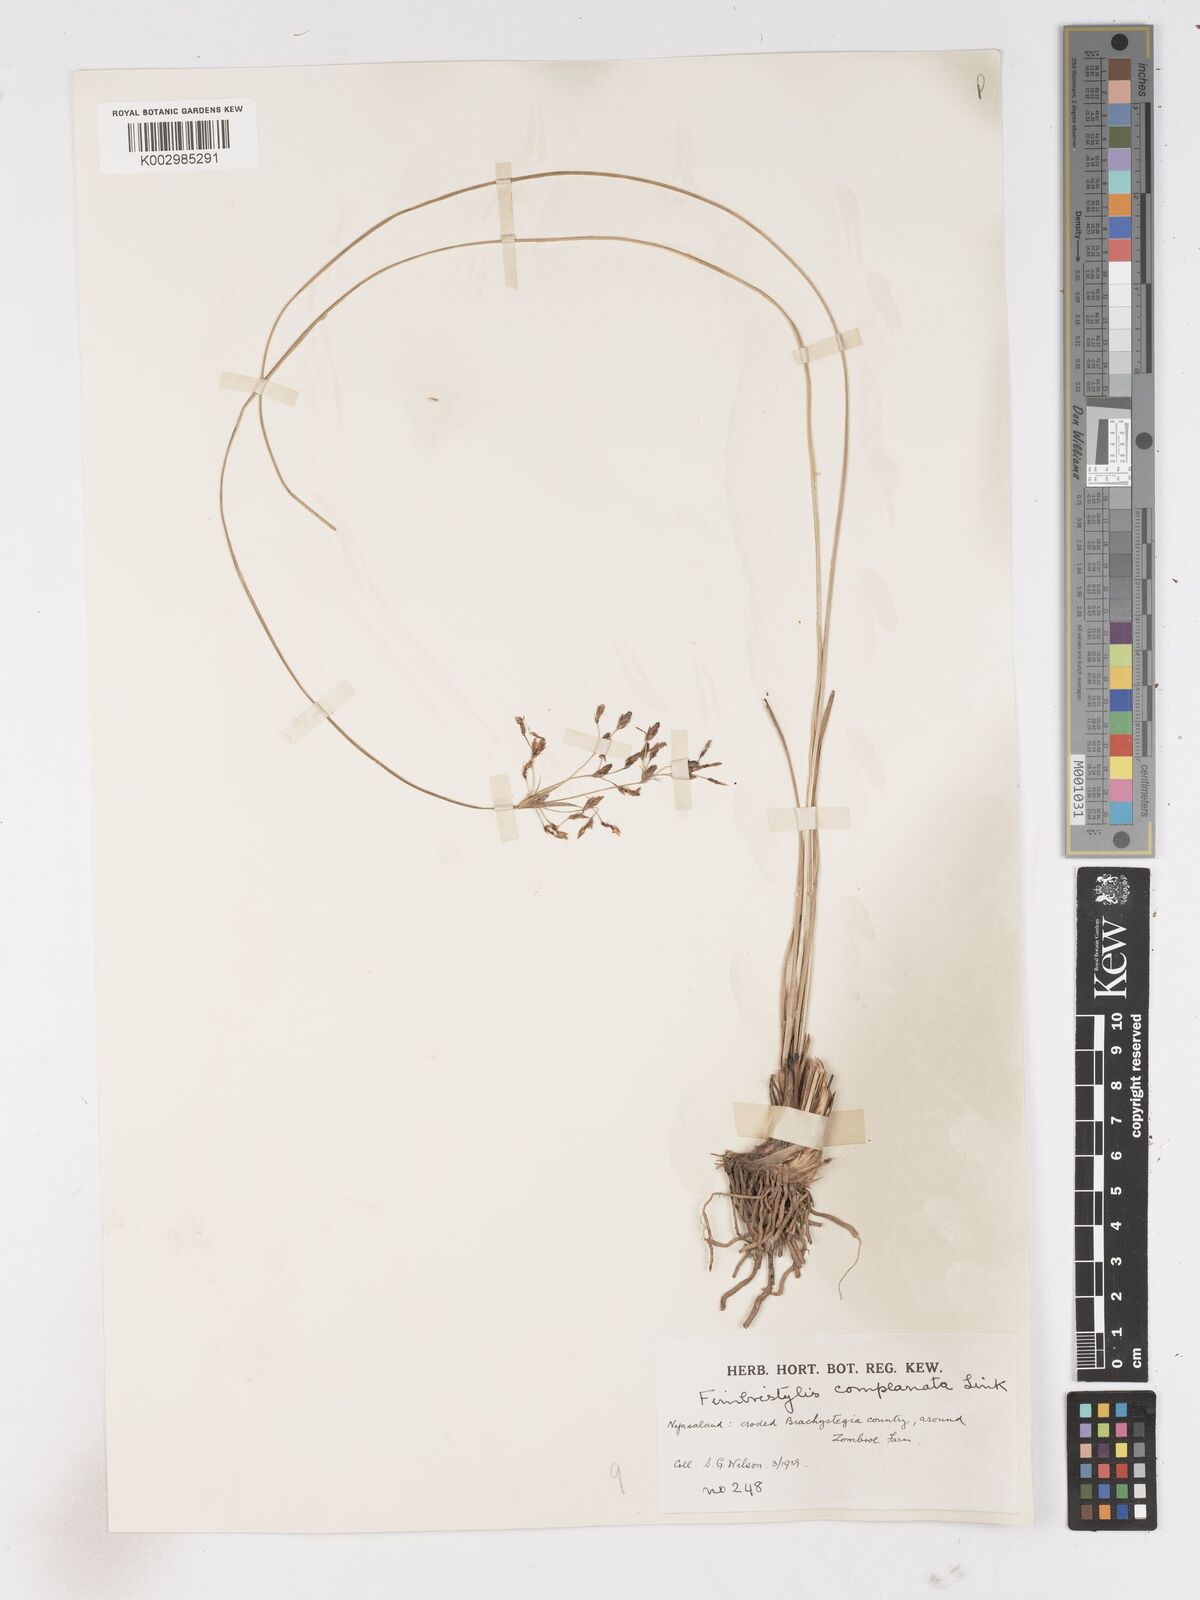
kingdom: Plantae
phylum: Tracheophyta
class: Liliopsida
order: Poales
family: Cyperaceae
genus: Fimbristylis
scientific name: Fimbristylis complanata
